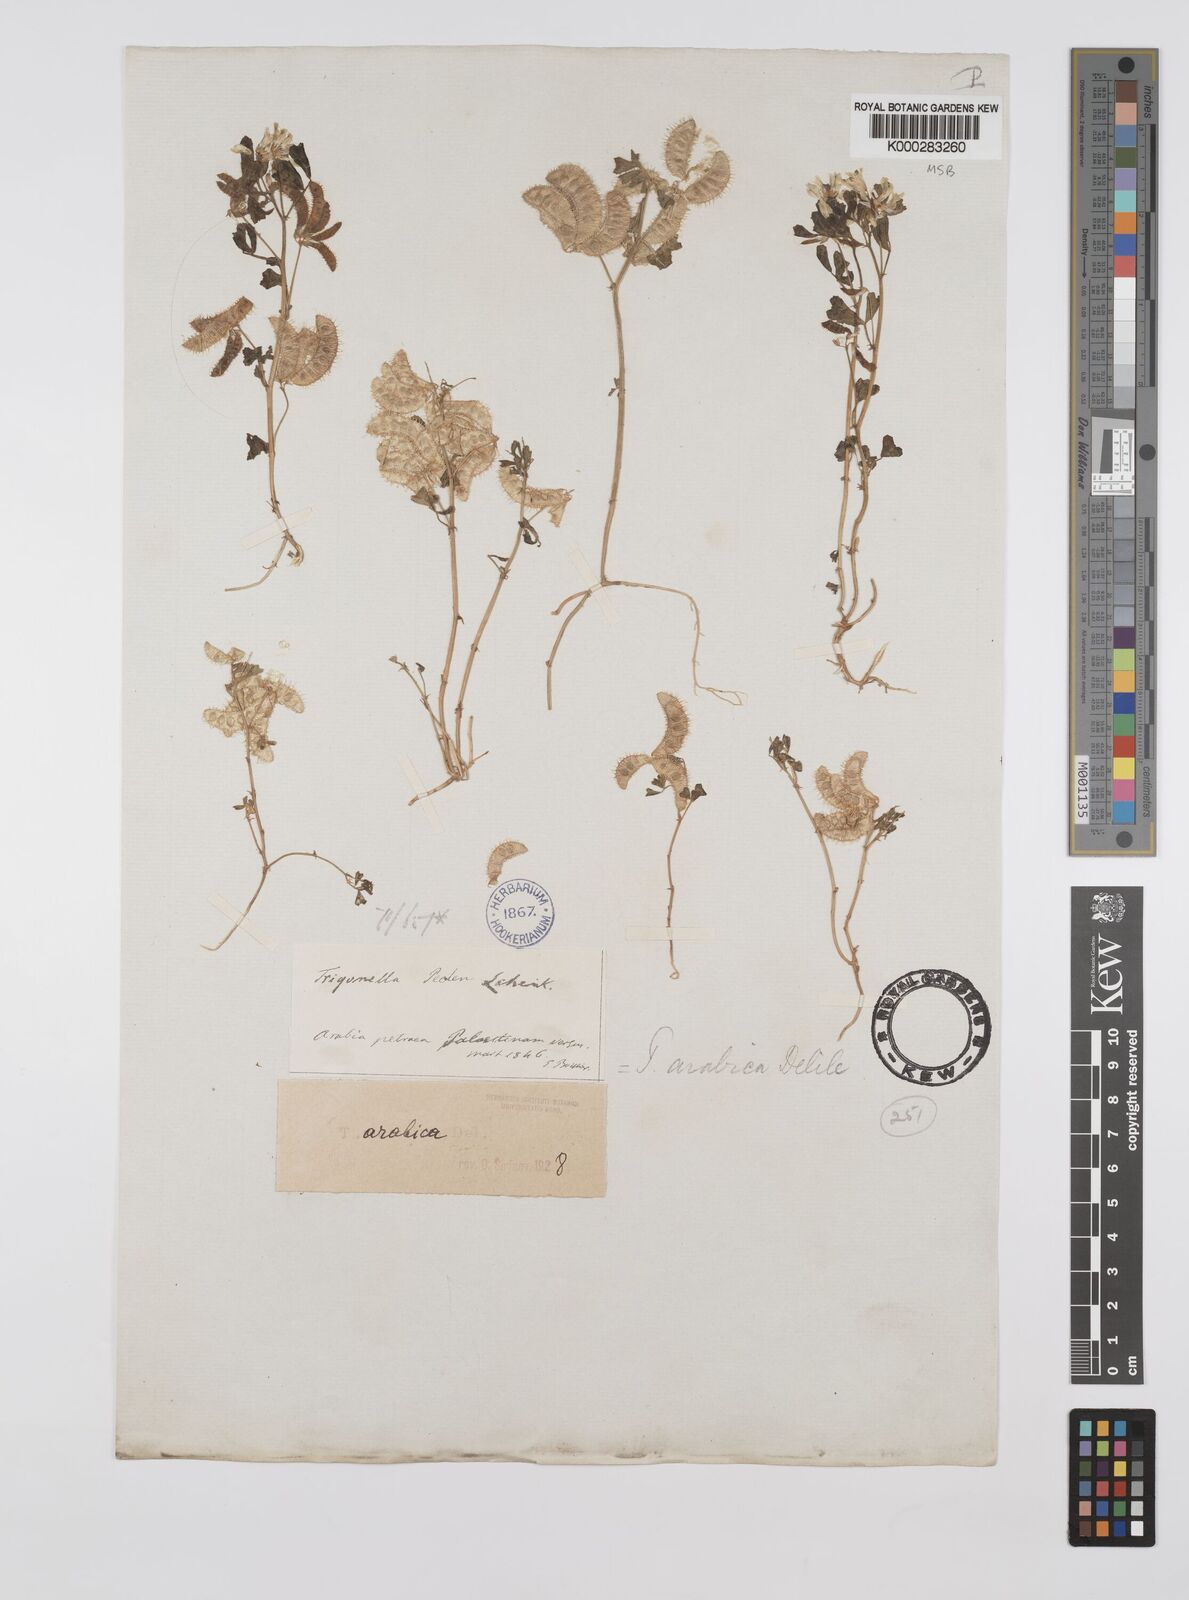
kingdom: Plantae
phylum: Tracheophyta
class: Magnoliopsida
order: Fabales
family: Fabaceae
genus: Trigonella
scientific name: Trigonella arabica
